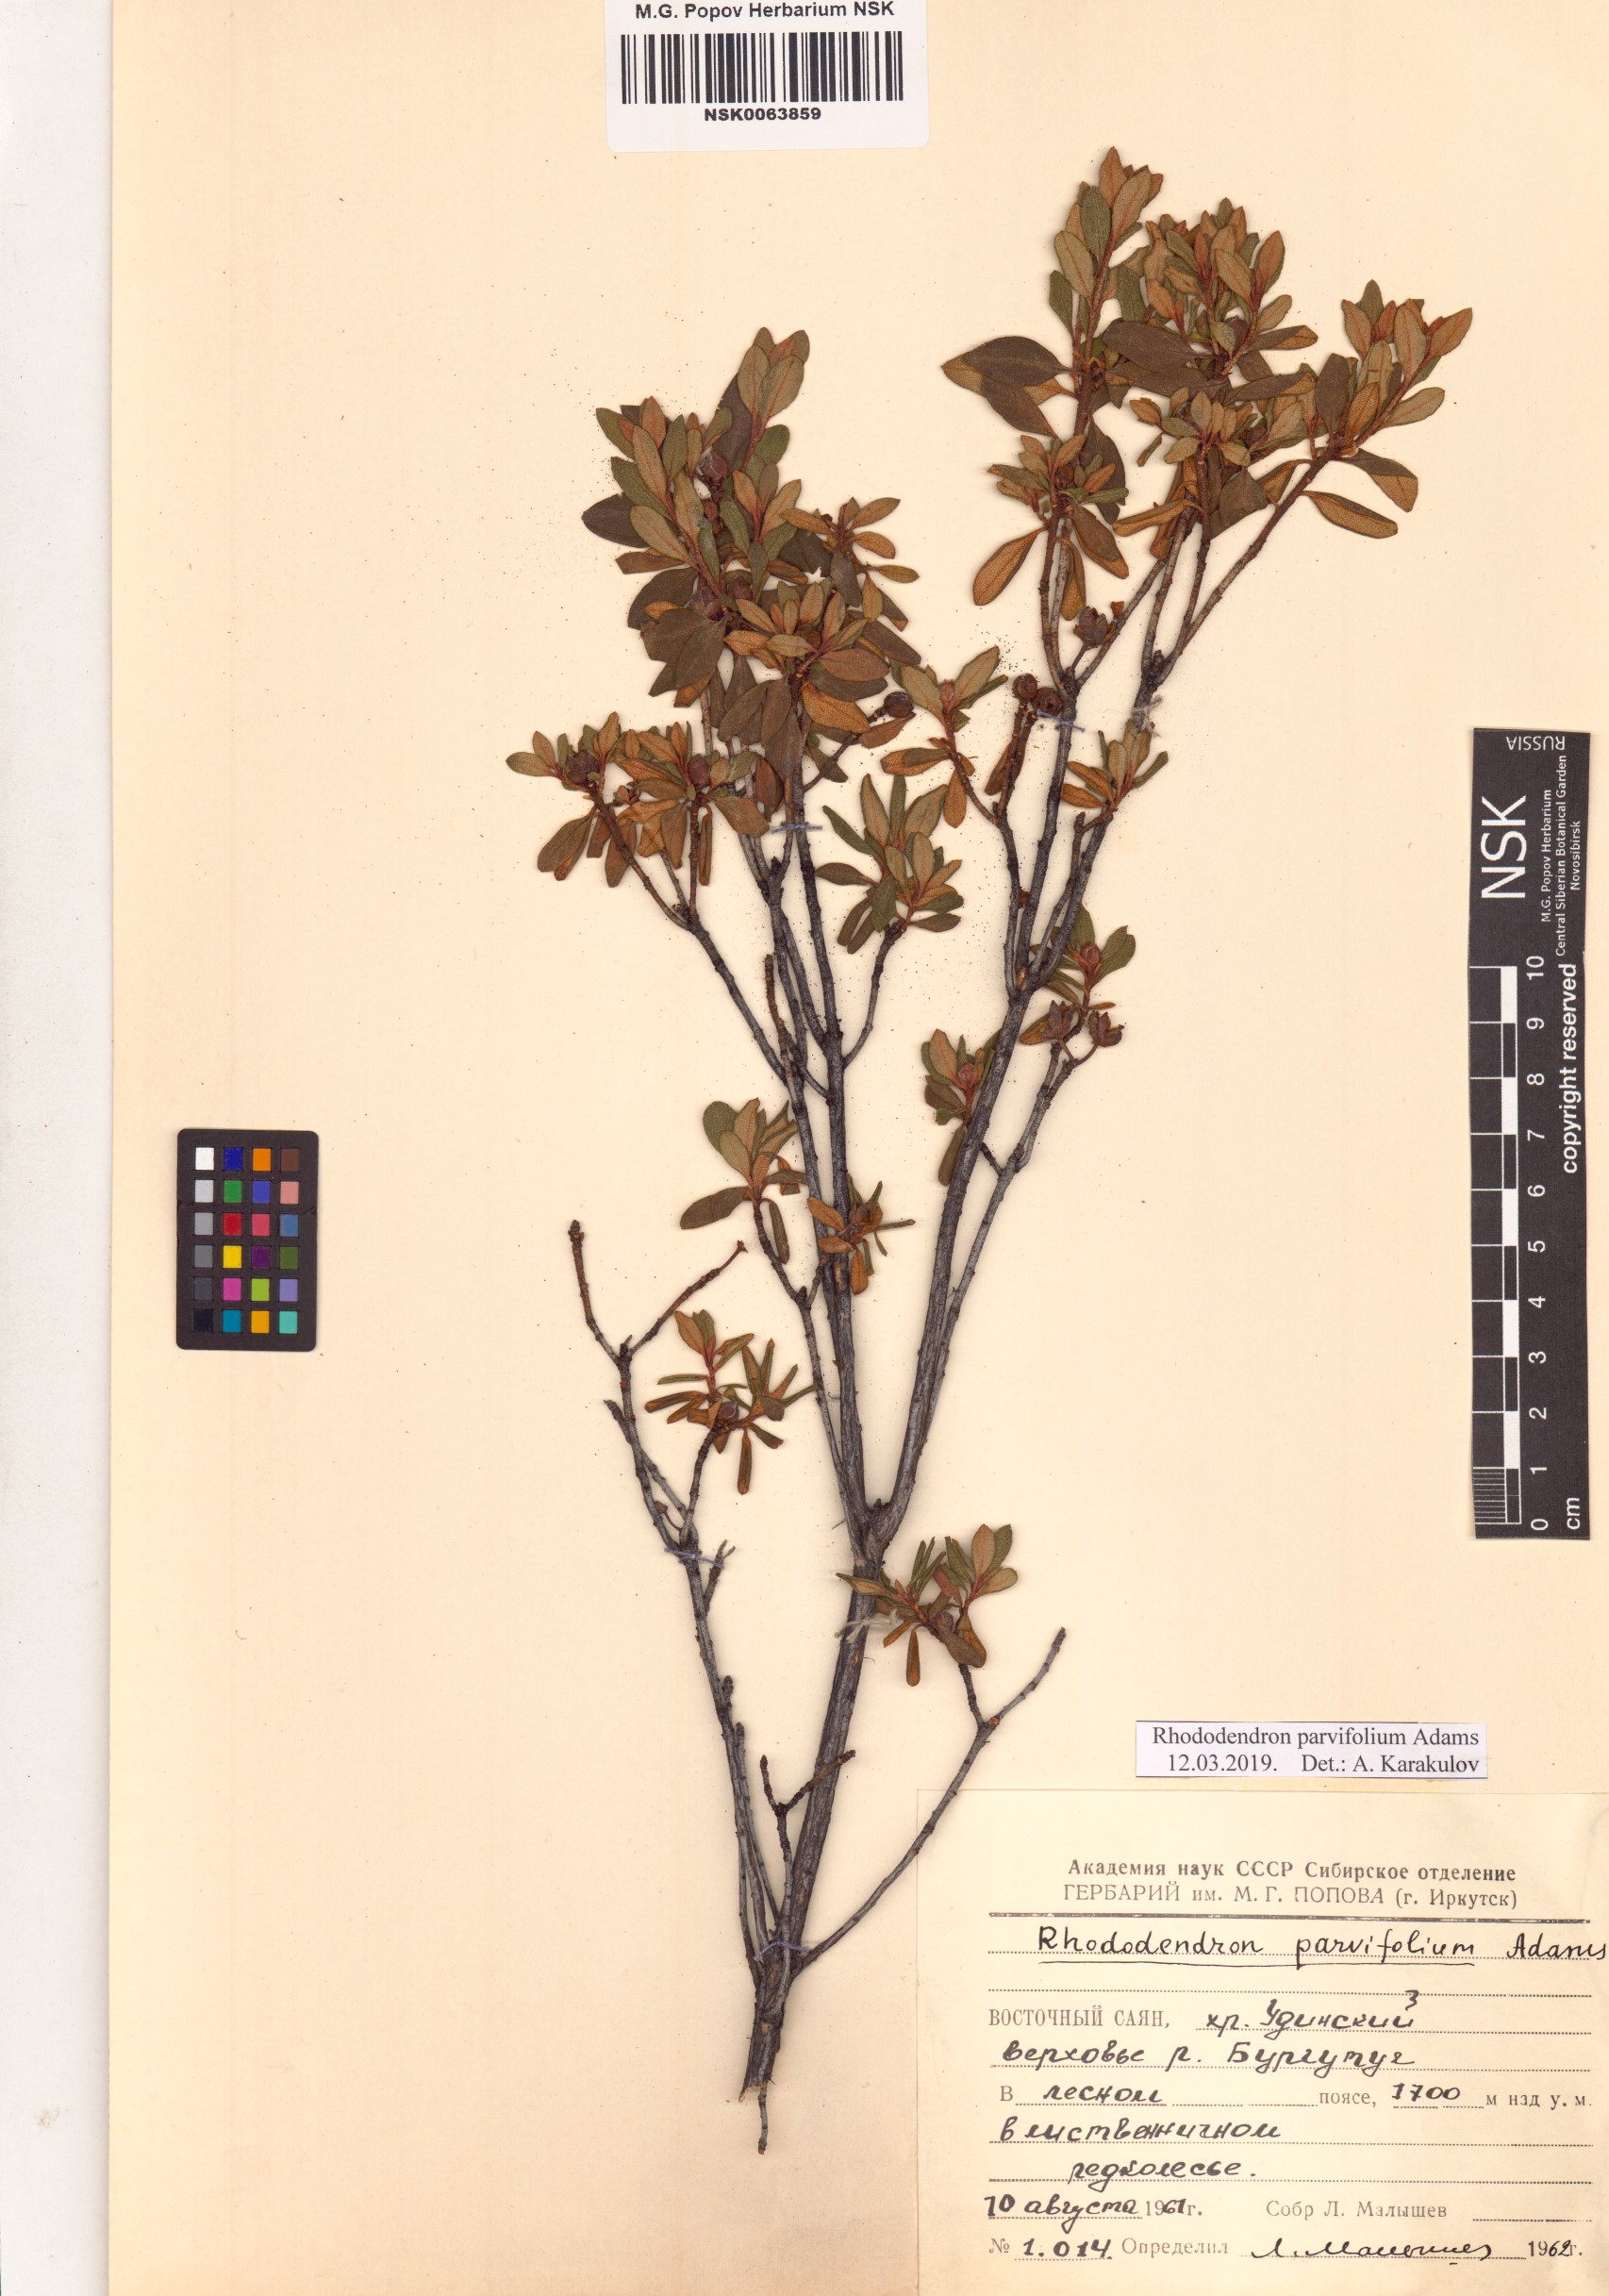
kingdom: Plantae
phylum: Tracheophyta
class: Magnoliopsida
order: Ericales
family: Ericaceae
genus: Rhododendron
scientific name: Rhododendron parvifolium
